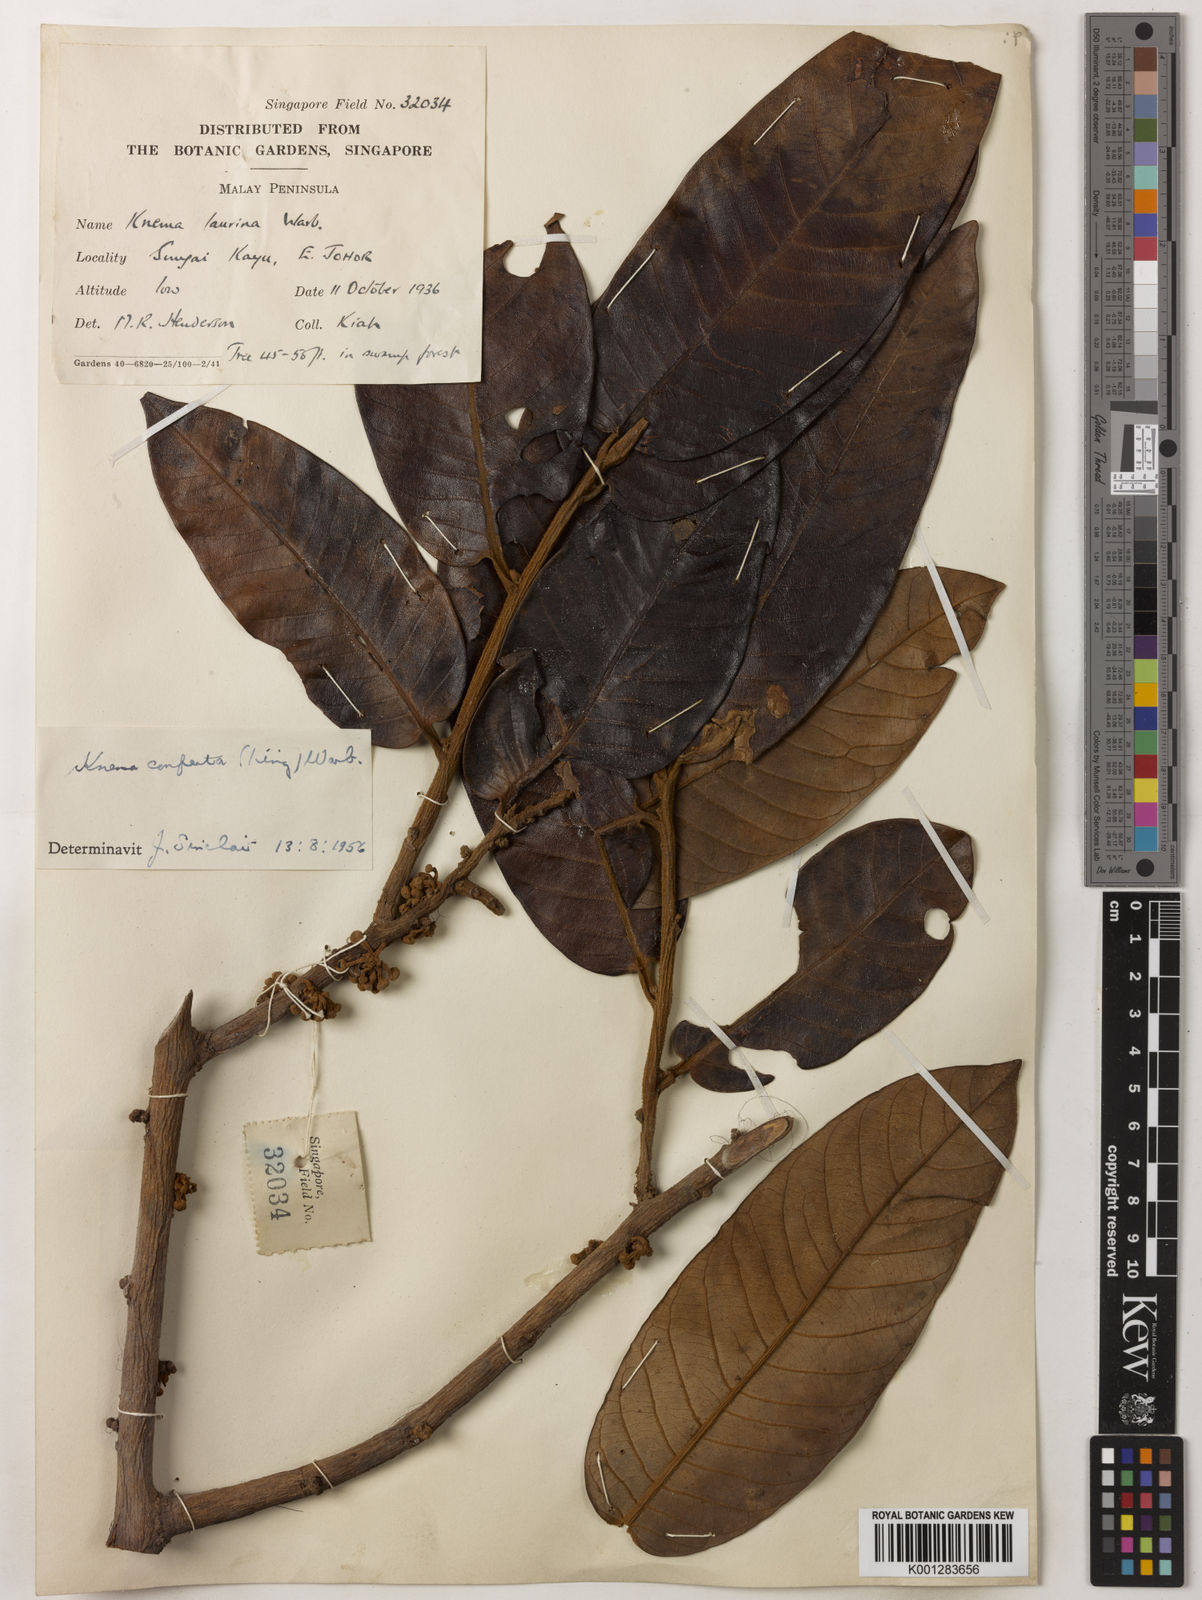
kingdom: Plantae
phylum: Tracheophyta
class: Magnoliopsida
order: Magnoliales
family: Myristicaceae
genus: Knema
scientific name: Knema conferta
